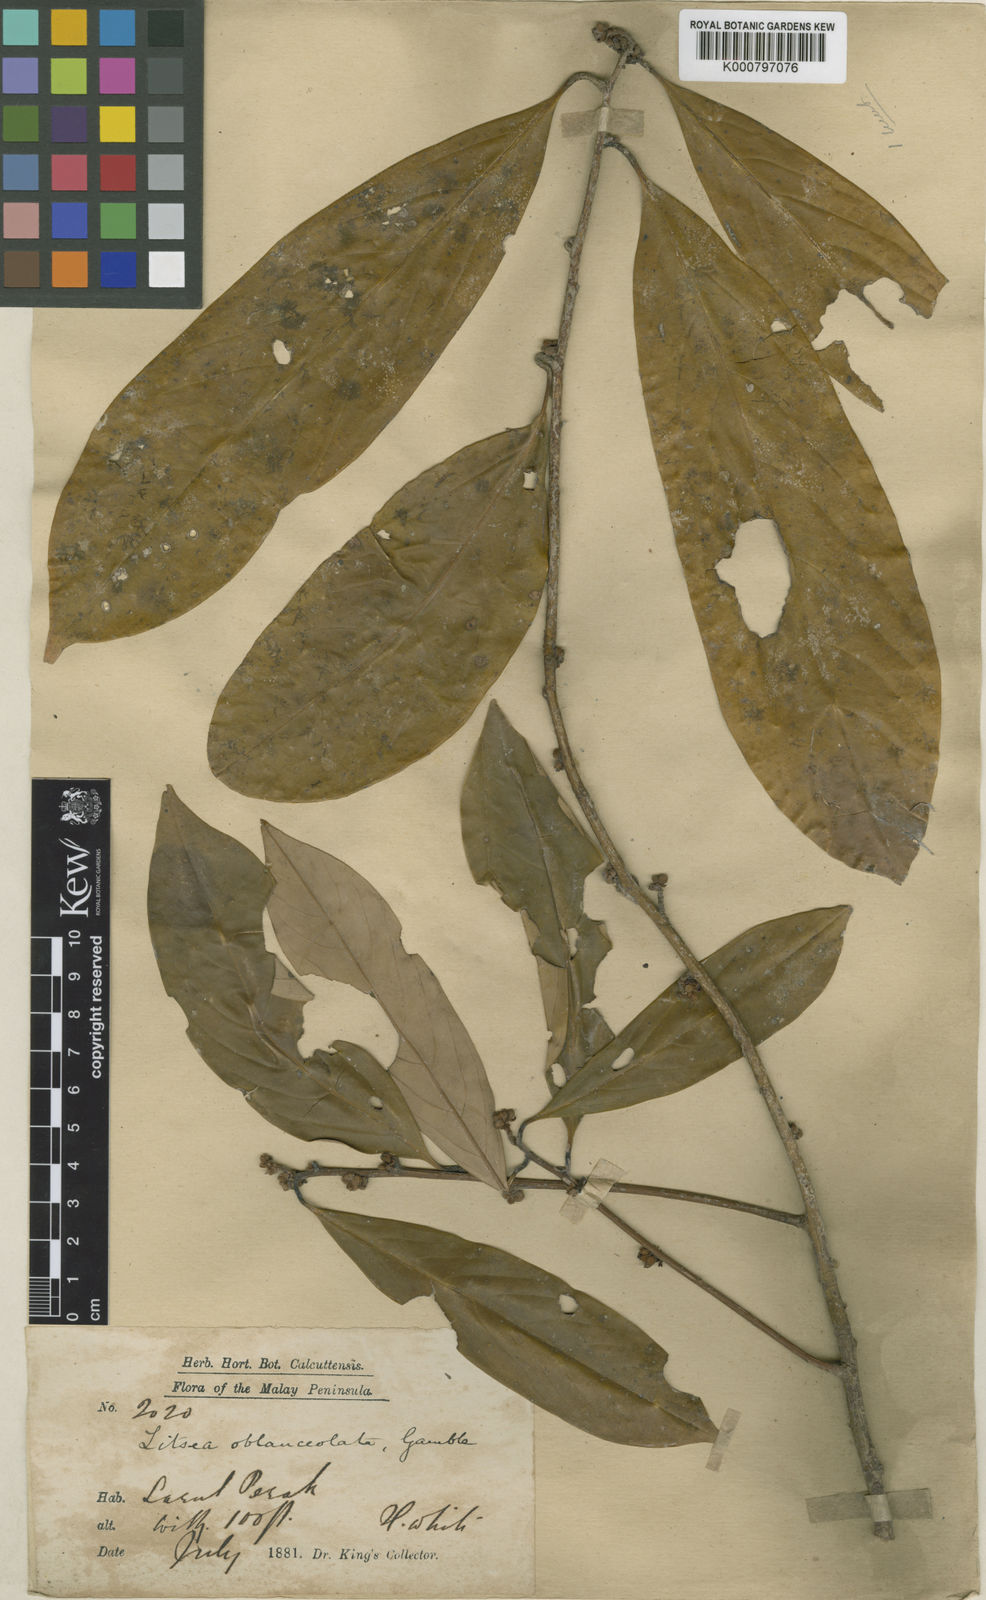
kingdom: Plantae
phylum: Tracheophyta
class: Magnoliopsida
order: Laurales
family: Lauraceae
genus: Litsea
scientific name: Litsea accedens
